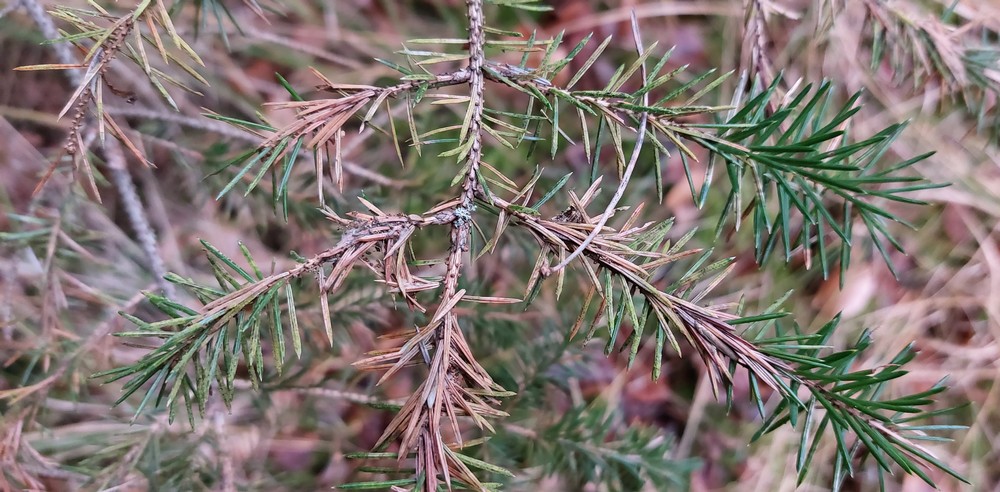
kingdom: Fungi
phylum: Ascomycota
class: Dothideomycetes
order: Venturiales
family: Venturiaceae
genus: Rhizosphaera
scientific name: Rhizosphaera kalkhoffii
